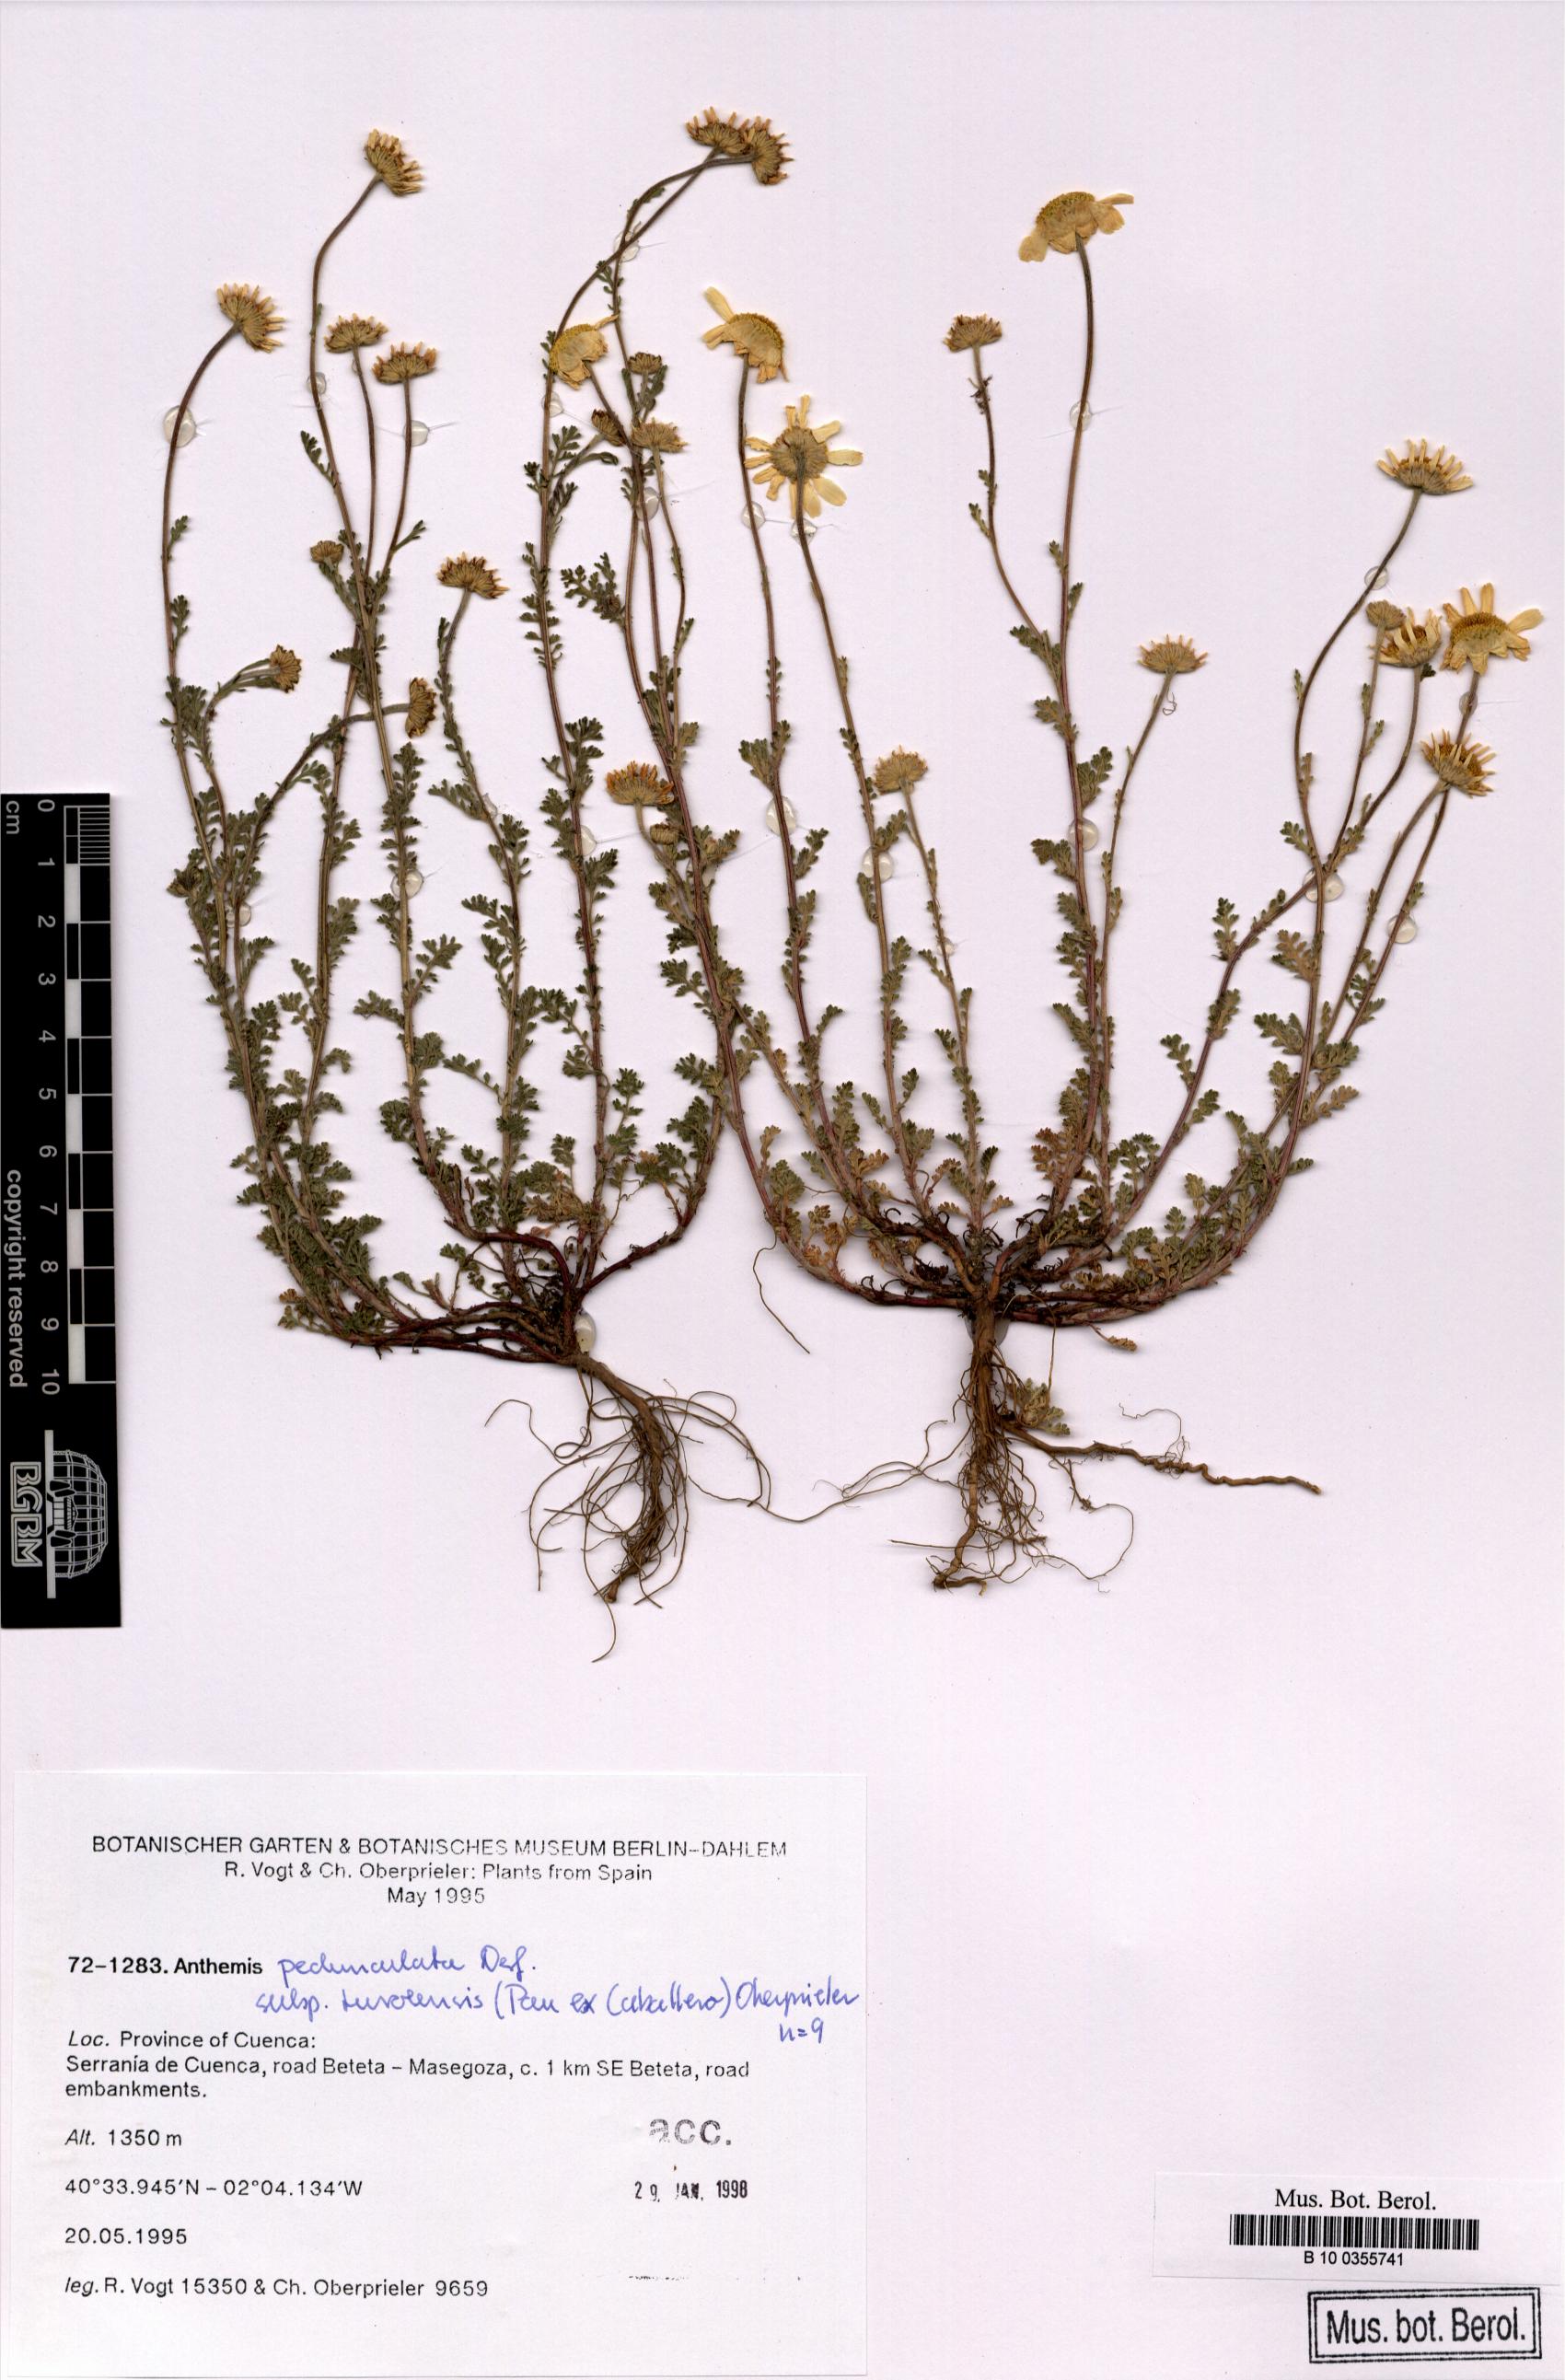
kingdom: Plantae
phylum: Tracheophyta
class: Magnoliopsida
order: Asterales
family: Asteraceae
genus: Anthemis
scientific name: Anthemis pedunculata
